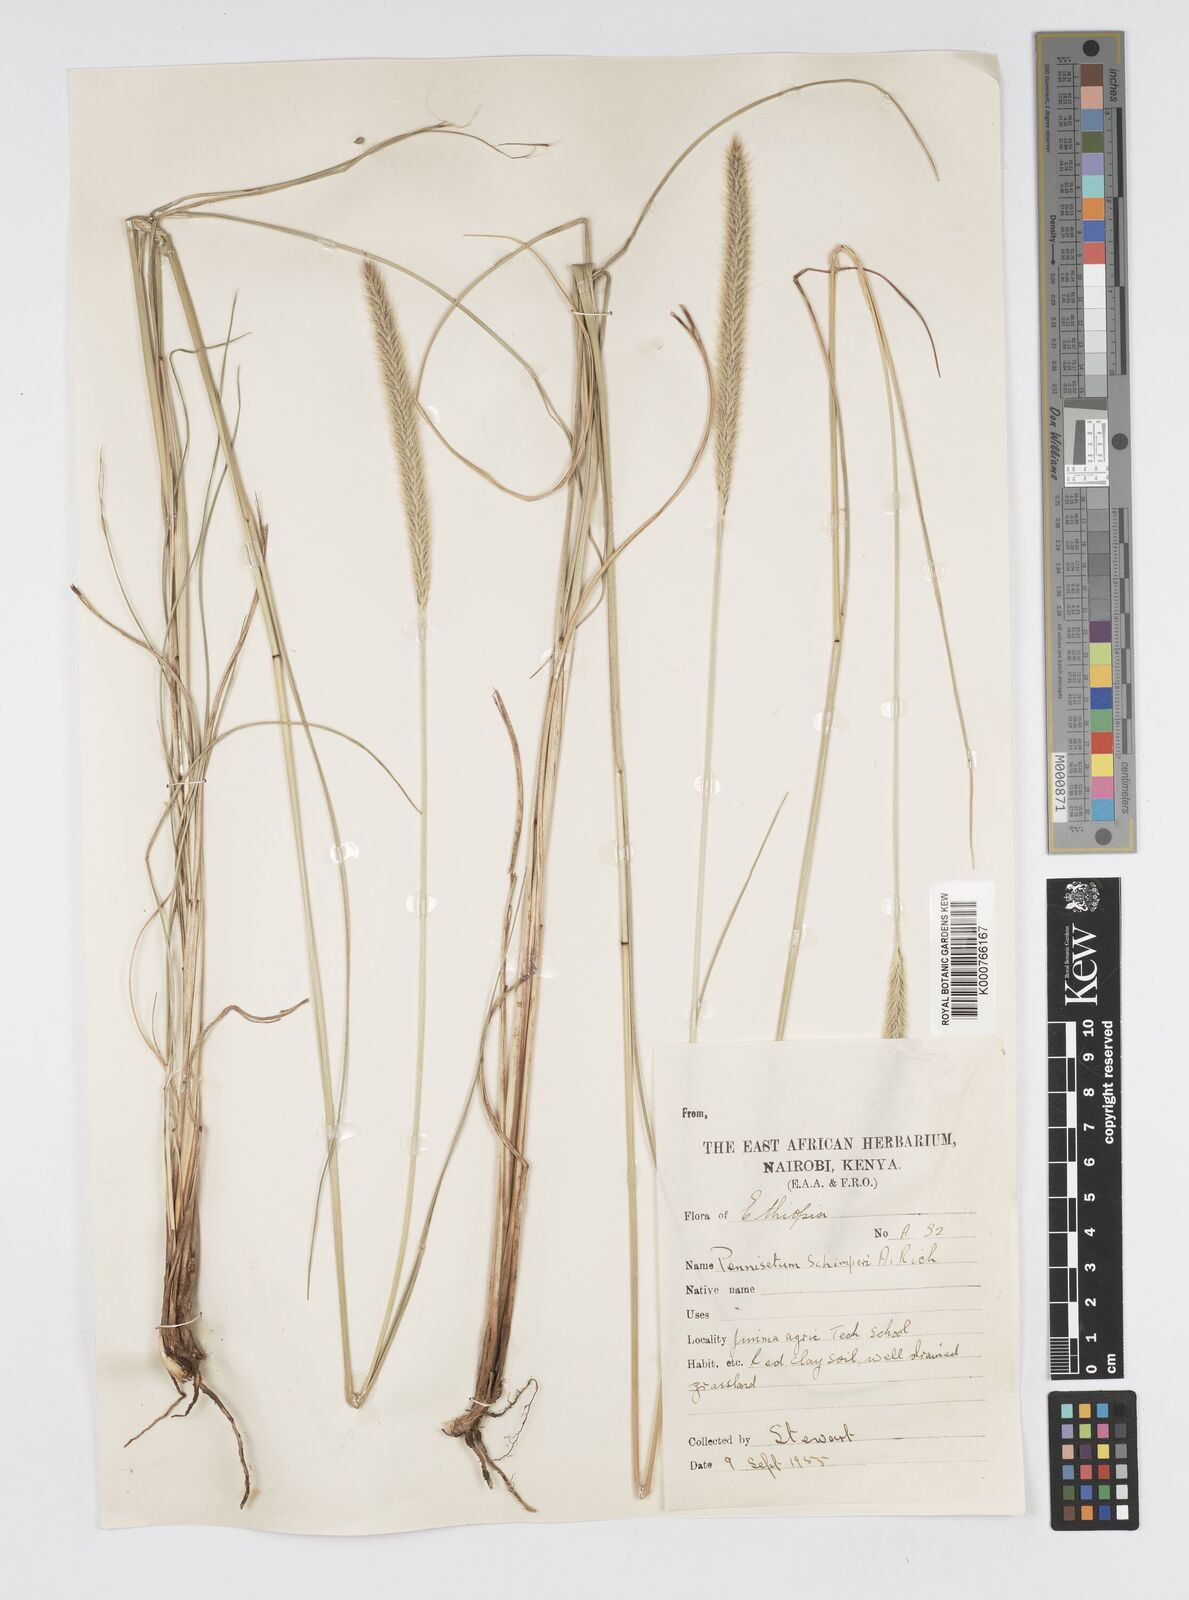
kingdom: Plantae
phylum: Tracheophyta
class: Liliopsida
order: Poales
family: Poaceae
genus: Cenchrus
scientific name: Cenchrus sphacelatus
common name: Bulgras
